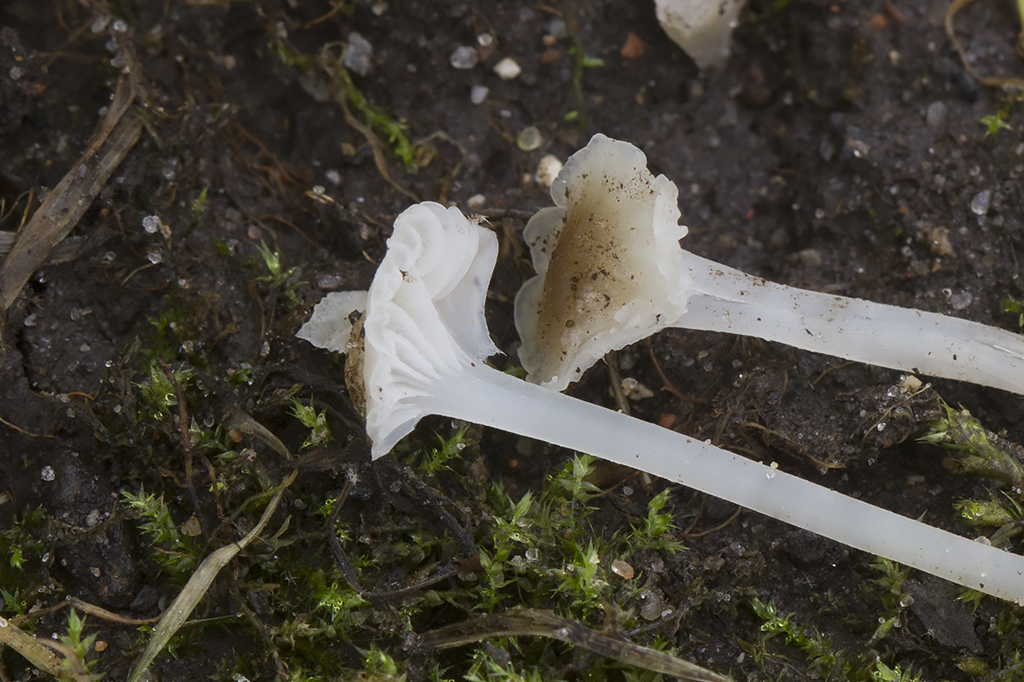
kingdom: Fungi
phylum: Basidiomycota
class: Agaricomycetes
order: Agaricales
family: Mycenaceae
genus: Hemimycena
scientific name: Hemimycena mairei
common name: voks-huesvamp
